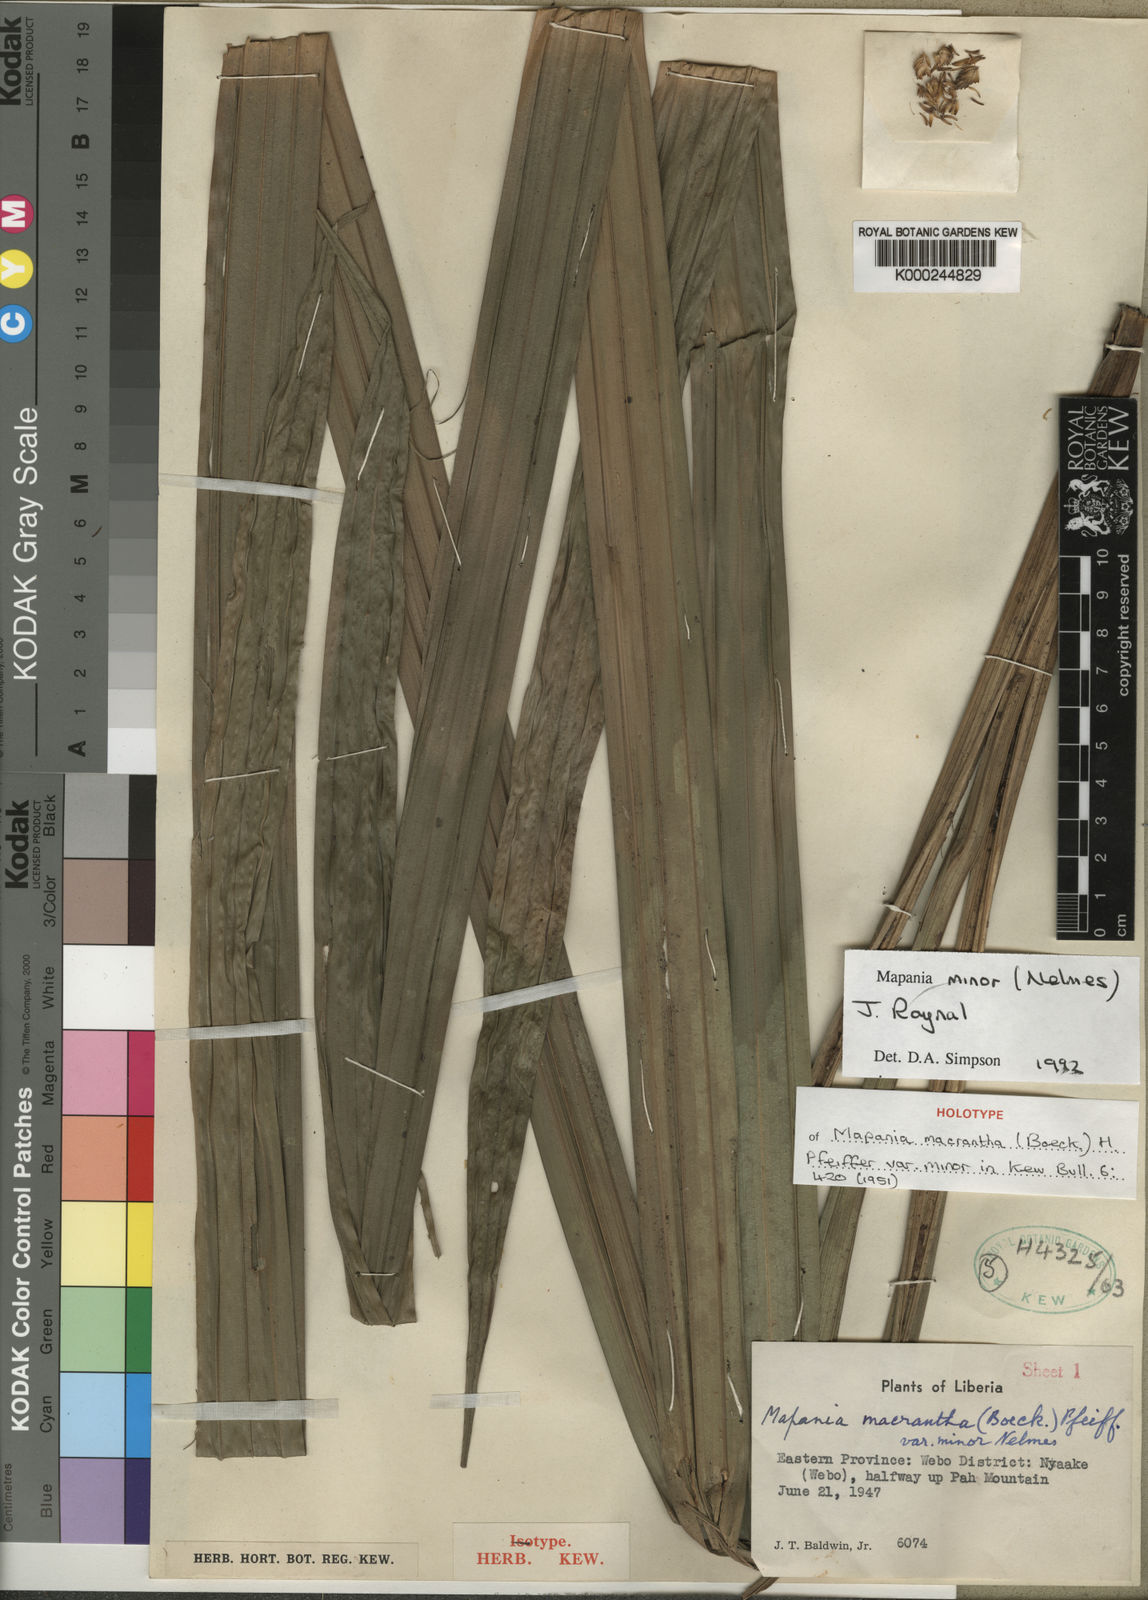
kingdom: Plantae
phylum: Tracheophyta
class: Liliopsida
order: Poales
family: Cyperaceae
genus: Mapania
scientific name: Mapania minor
